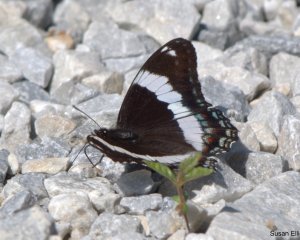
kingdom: Animalia
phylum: Arthropoda
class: Insecta
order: Lepidoptera
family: Nymphalidae
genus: Limenitis
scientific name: Limenitis arthemis
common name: Red-spotted Admiral
